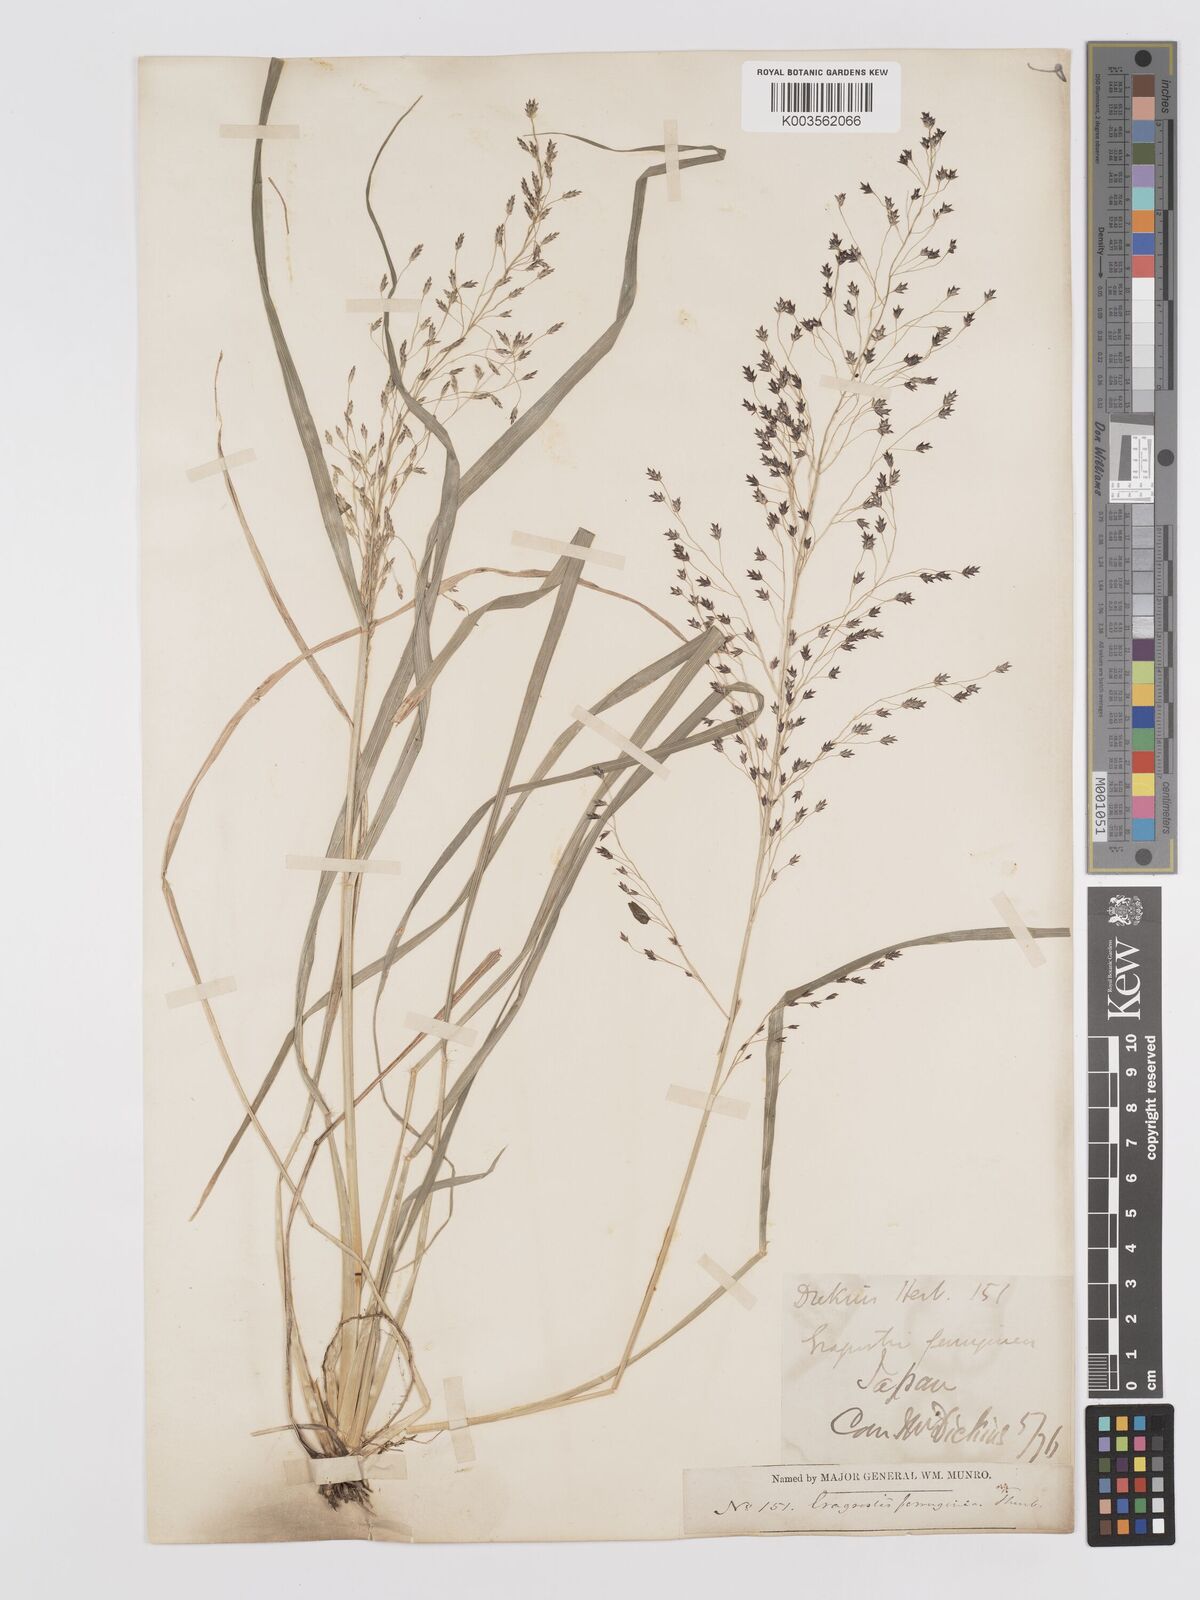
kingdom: Plantae
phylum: Tracheophyta
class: Liliopsida
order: Poales
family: Poaceae
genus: Eragrostis
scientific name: Eragrostis ferruginea
